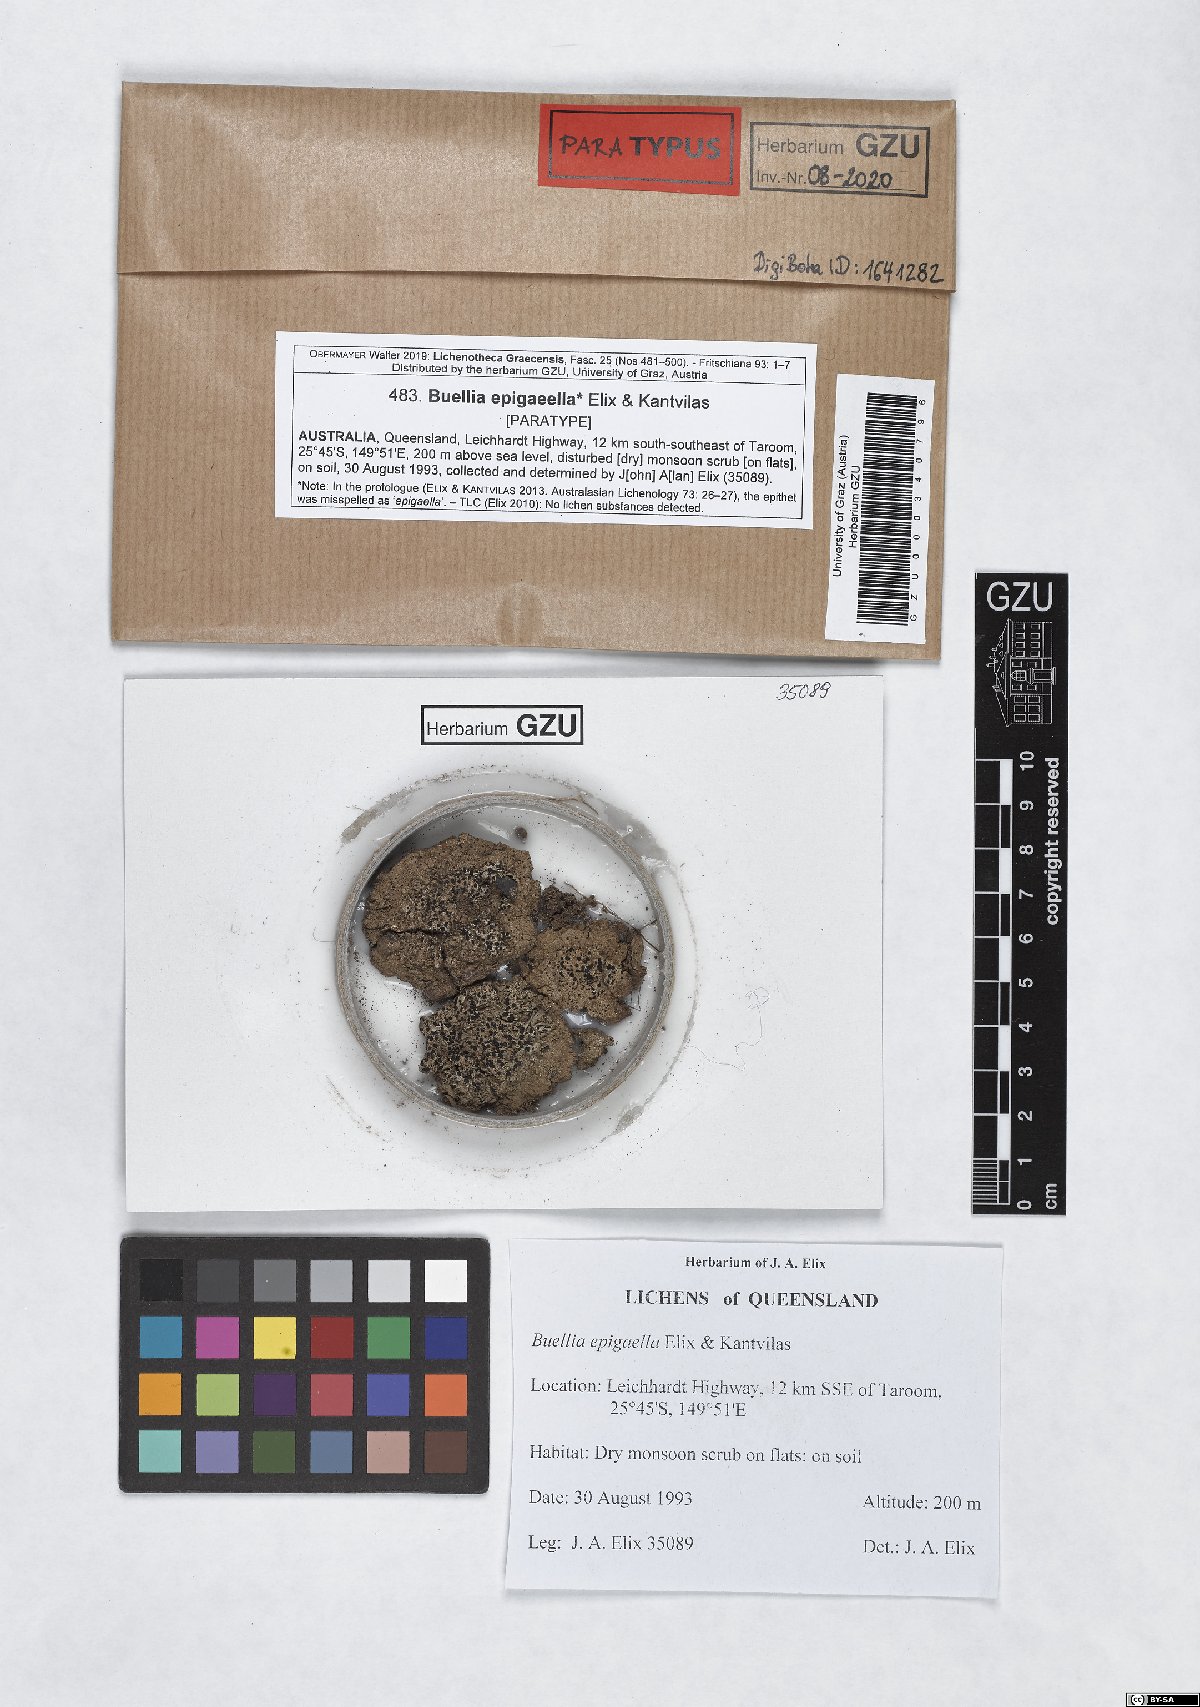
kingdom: Fungi
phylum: Ascomycota
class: Lecanoromycetes
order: Caliciales
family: Caliciaceae
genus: Buellia
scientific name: Buellia epigaella
